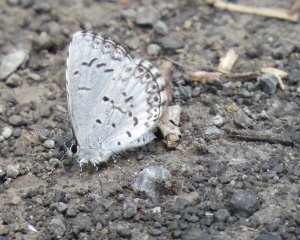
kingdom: Animalia
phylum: Arthropoda
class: Insecta
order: Lepidoptera
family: Lycaenidae
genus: Cyaniris
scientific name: Cyaniris neglecta
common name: Summer Azure
